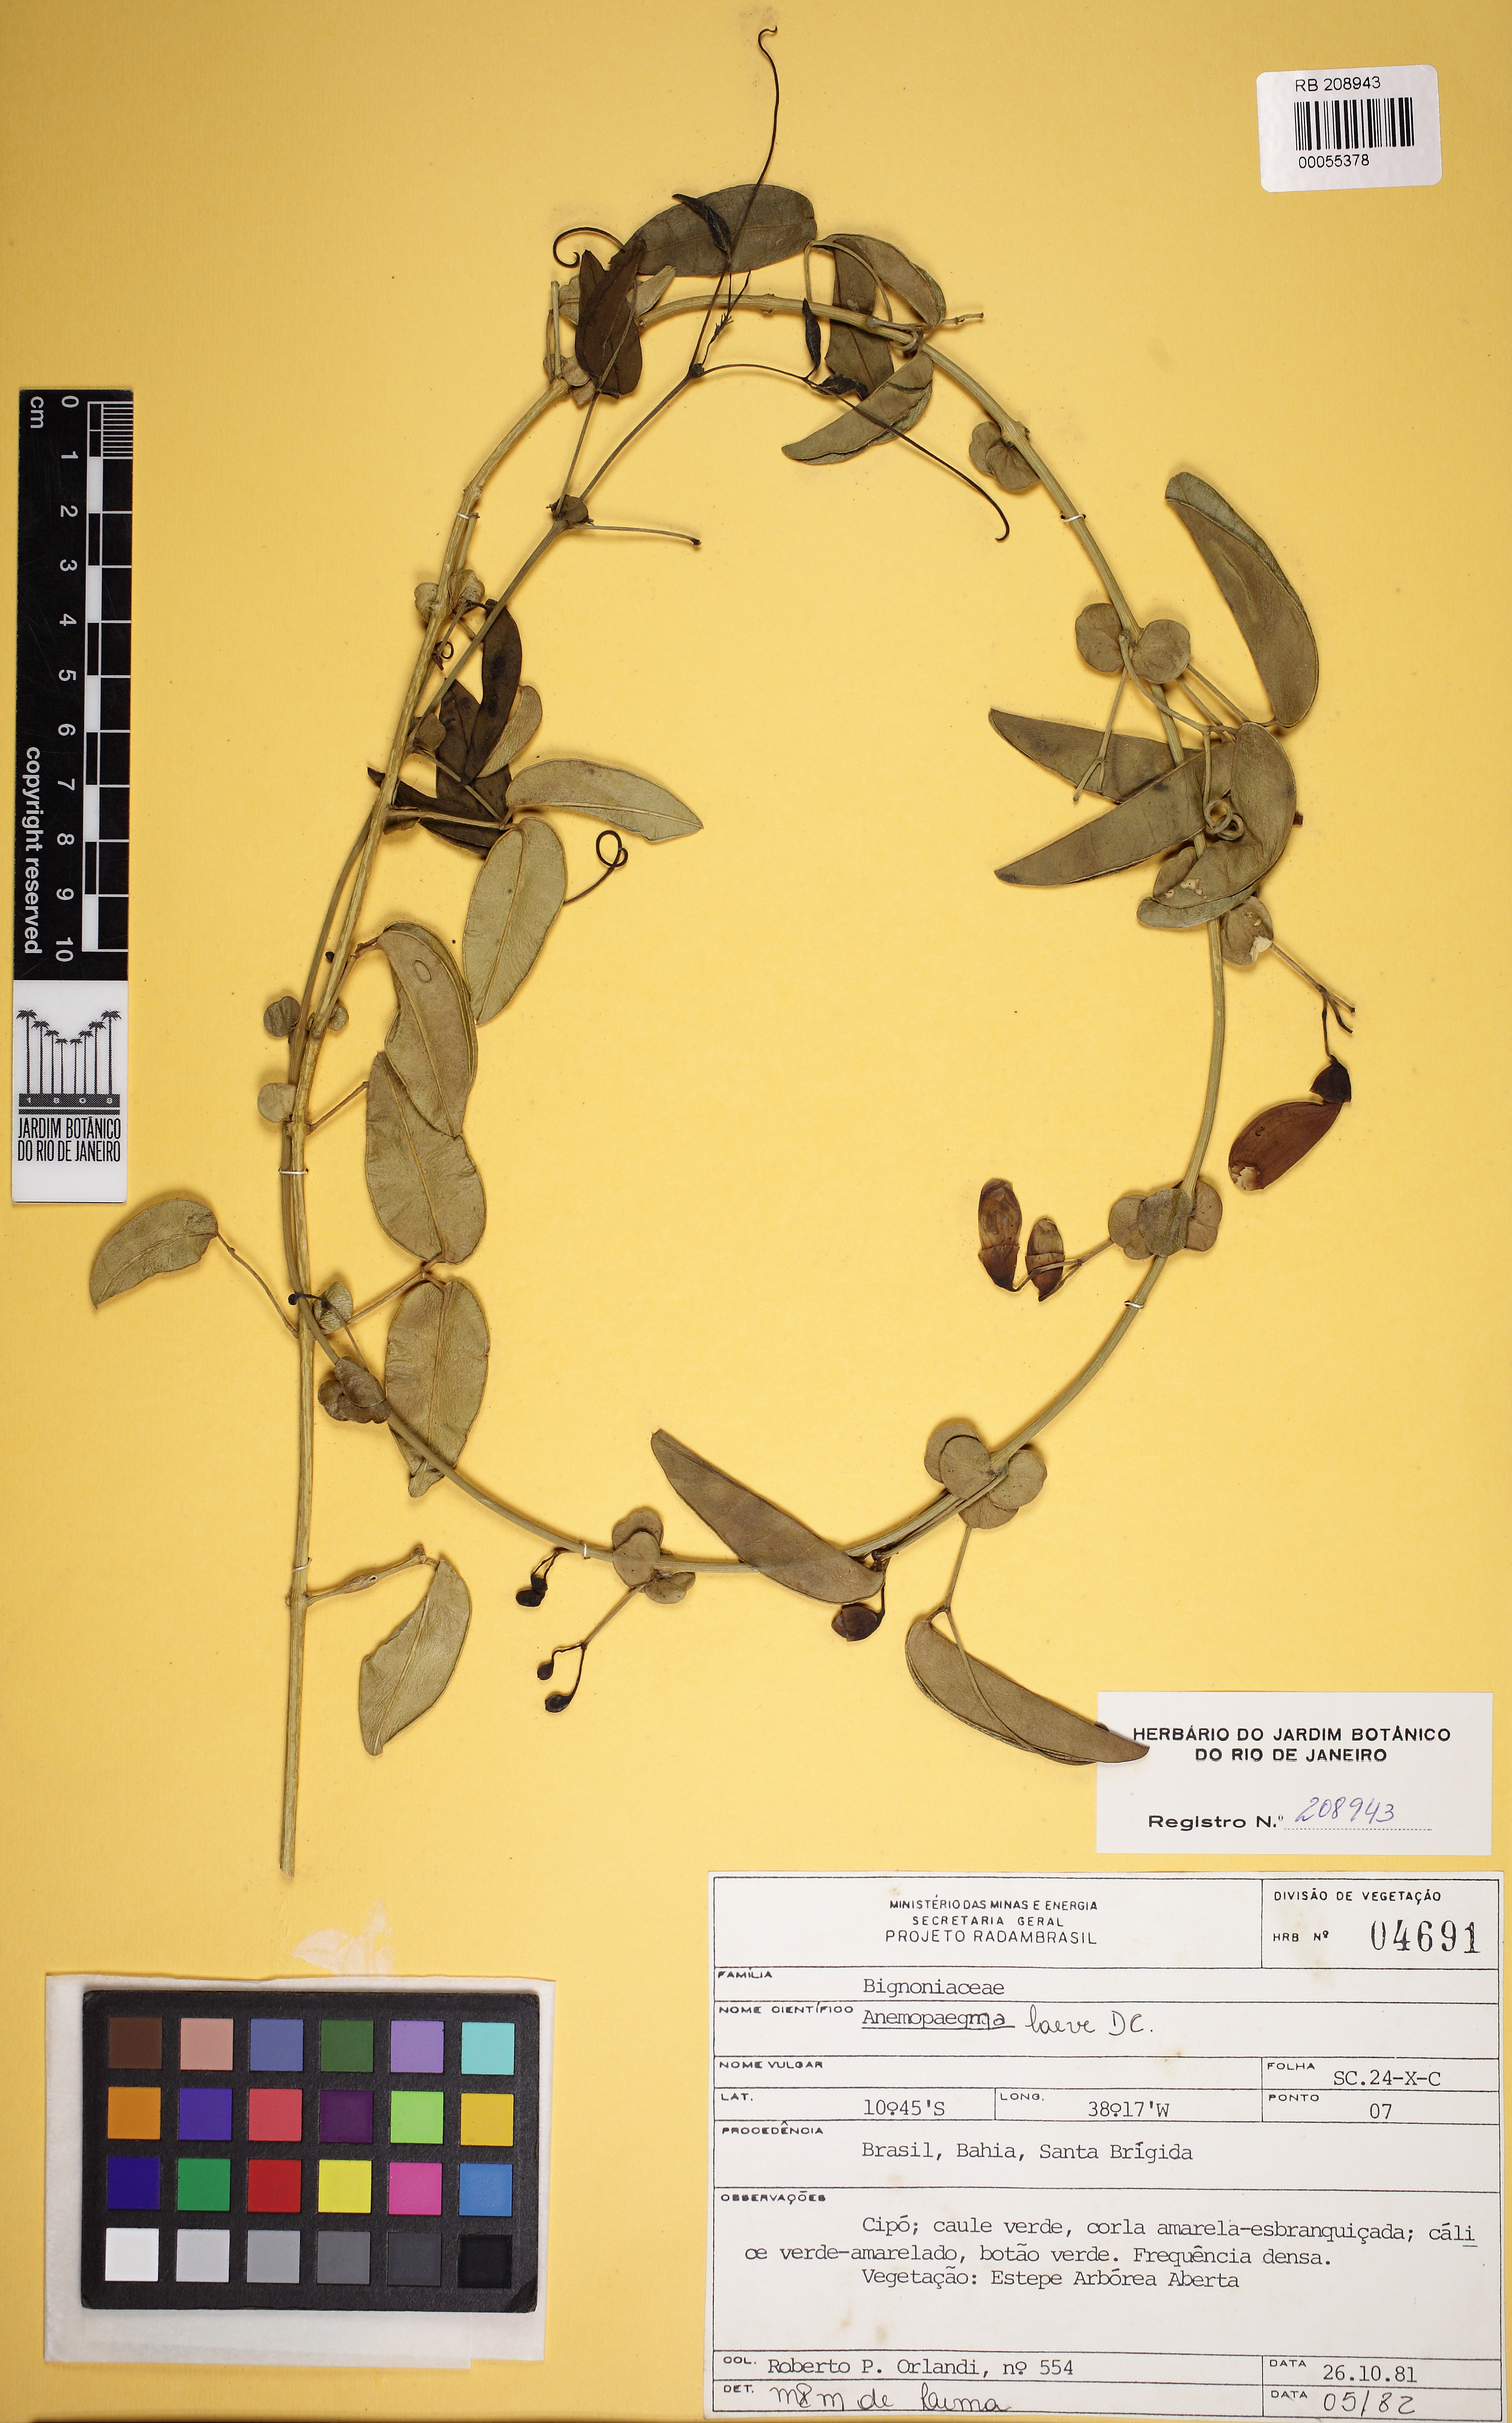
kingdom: Plantae
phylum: Tracheophyta
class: Magnoliopsida
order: Lamiales
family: Bignoniaceae
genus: Anemopaegma
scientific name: Anemopaegma laeve
